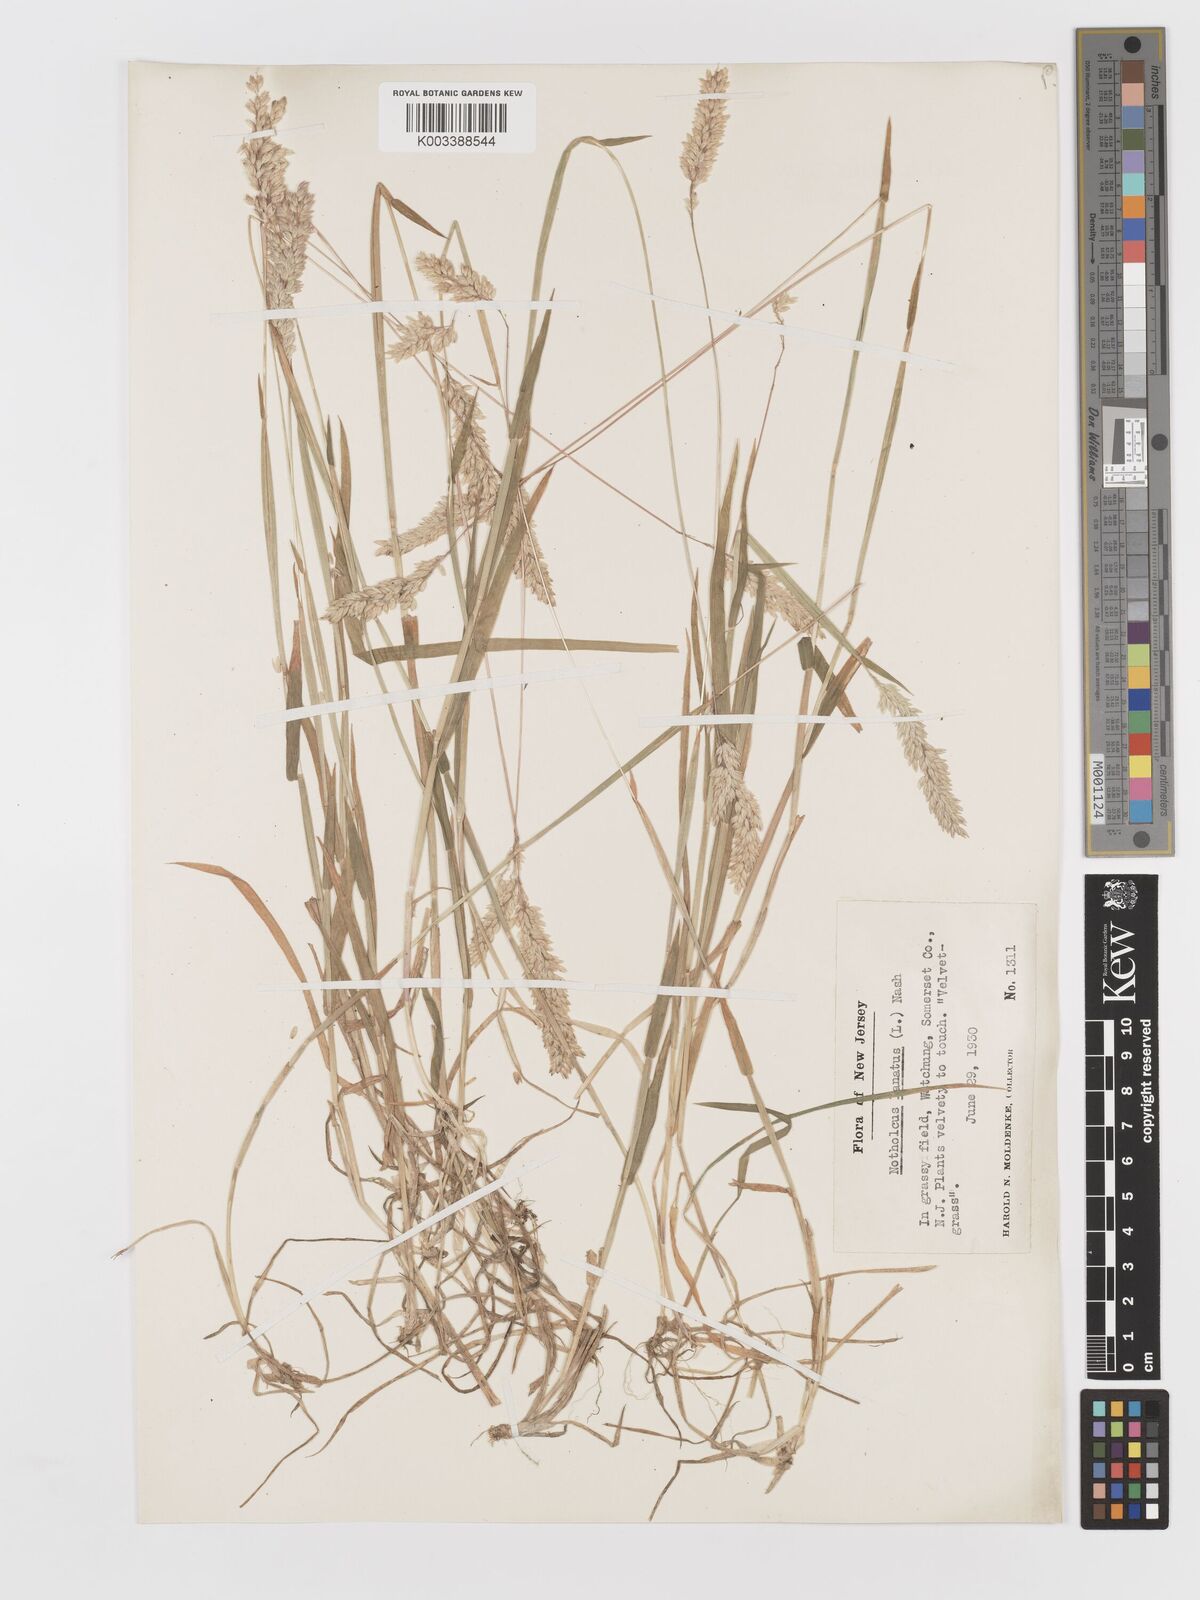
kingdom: Plantae
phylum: Tracheophyta
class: Liliopsida
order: Poales
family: Poaceae
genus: Holcus
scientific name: Holcus lanatus
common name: Yorkshire-fog
